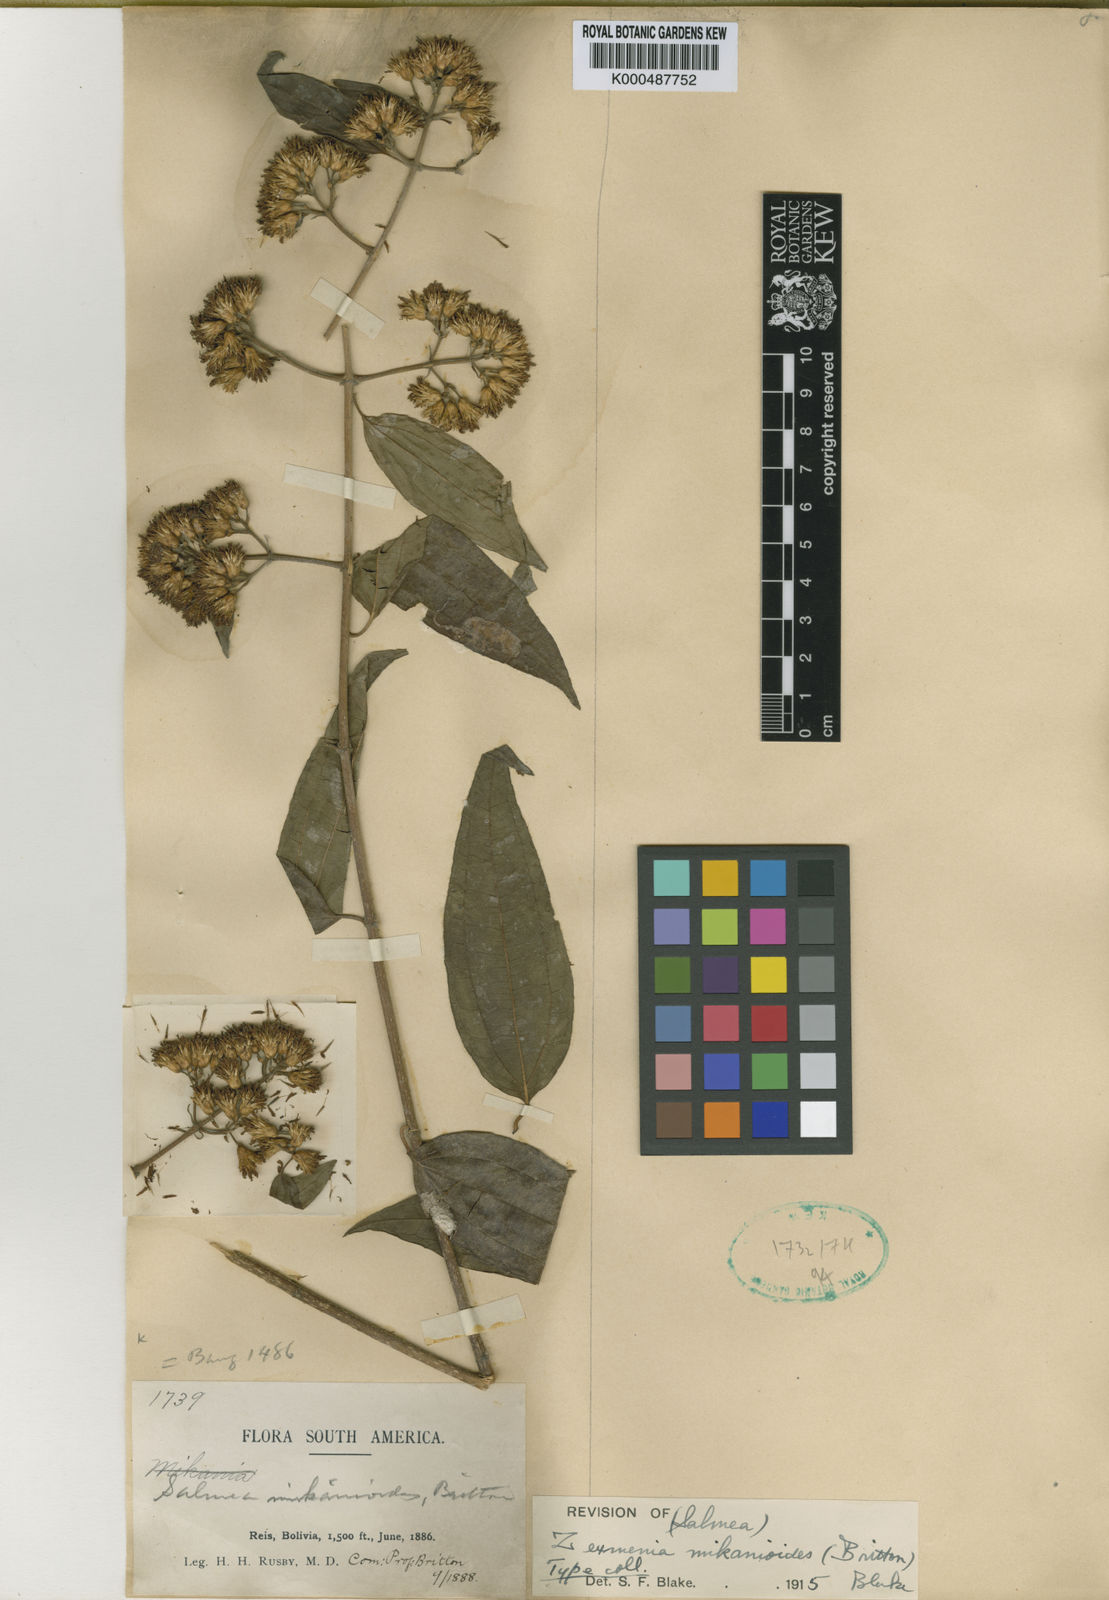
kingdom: Plantae
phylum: Tracheophyta
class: Magnoliopsida
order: Asterales
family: Asteraceae
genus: Oblivia
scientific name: Oblivia mikanioides
